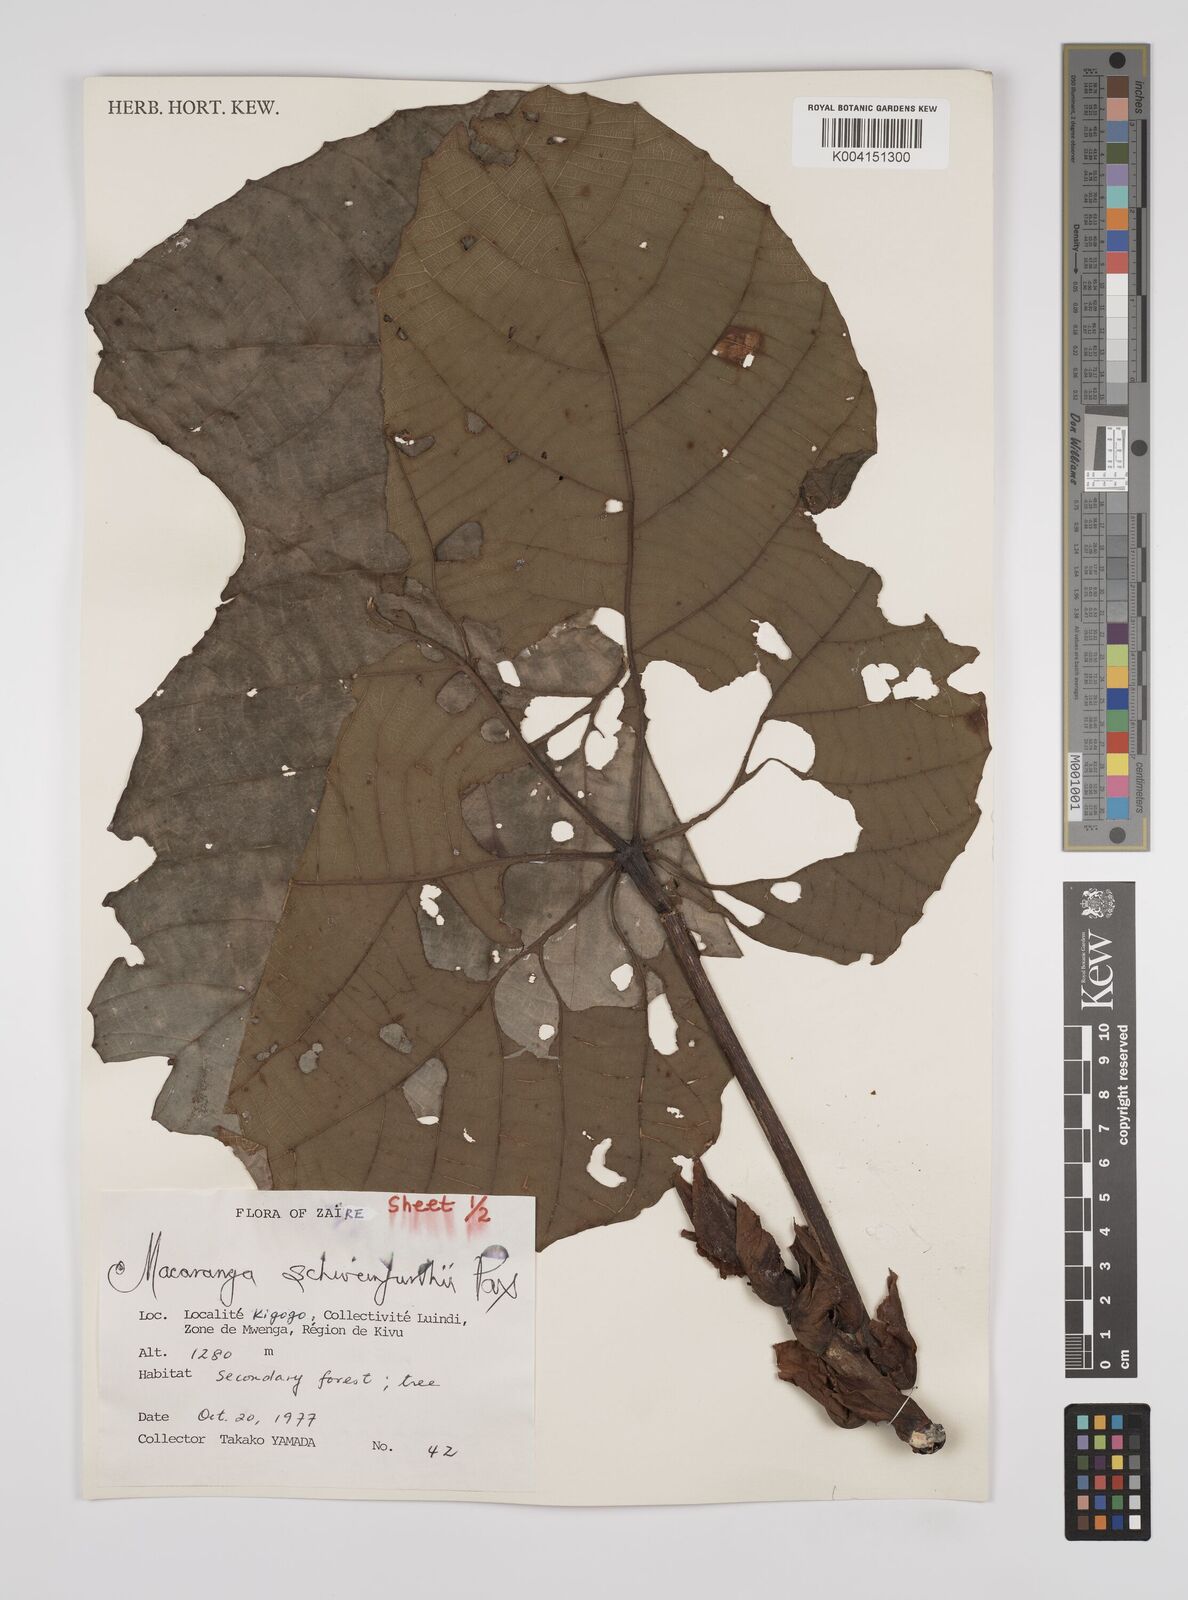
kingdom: Plantae
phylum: Tracheophyta
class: Magnoliopsida
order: Malpighiales
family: Euphorbiaceae
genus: Macaranga
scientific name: Macaranga schweinfurthii
